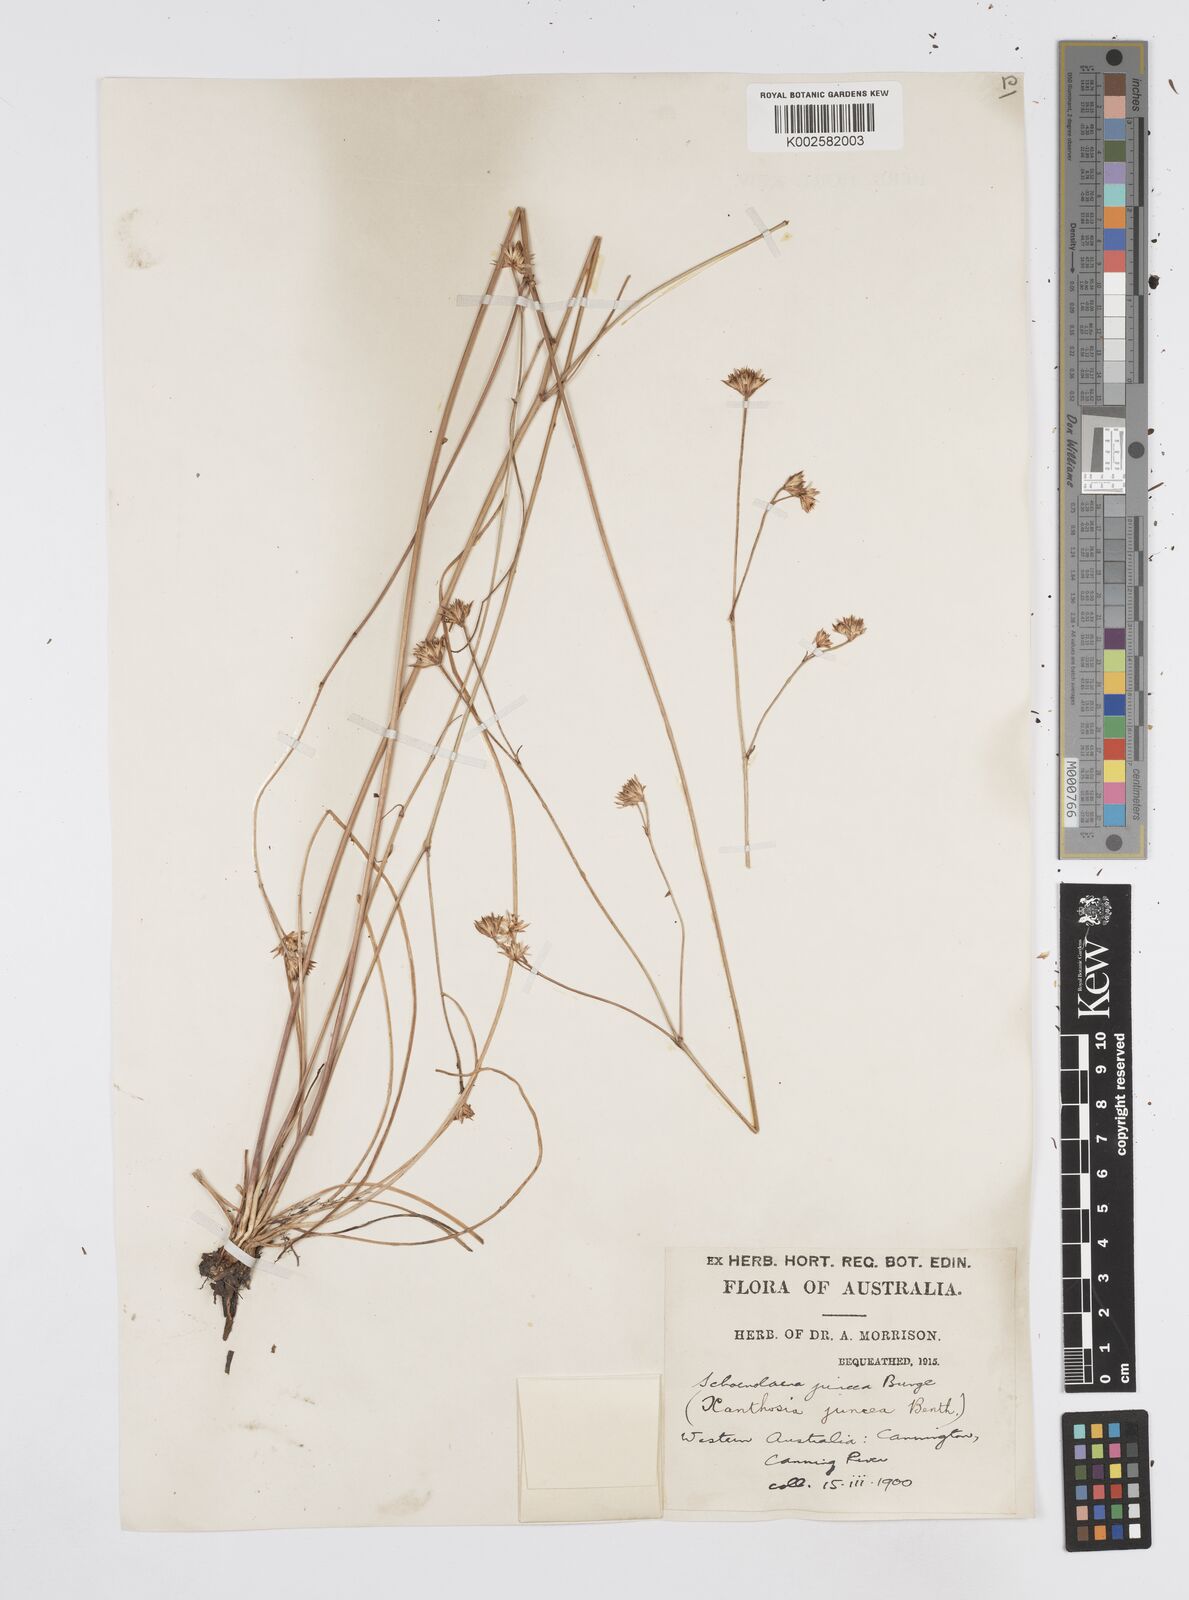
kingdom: Plantae
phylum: Tracheophyta
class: Magnoliopsida
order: Apiales
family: Apiaceae
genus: Schoenolaena
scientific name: Schoenolaena juncea
